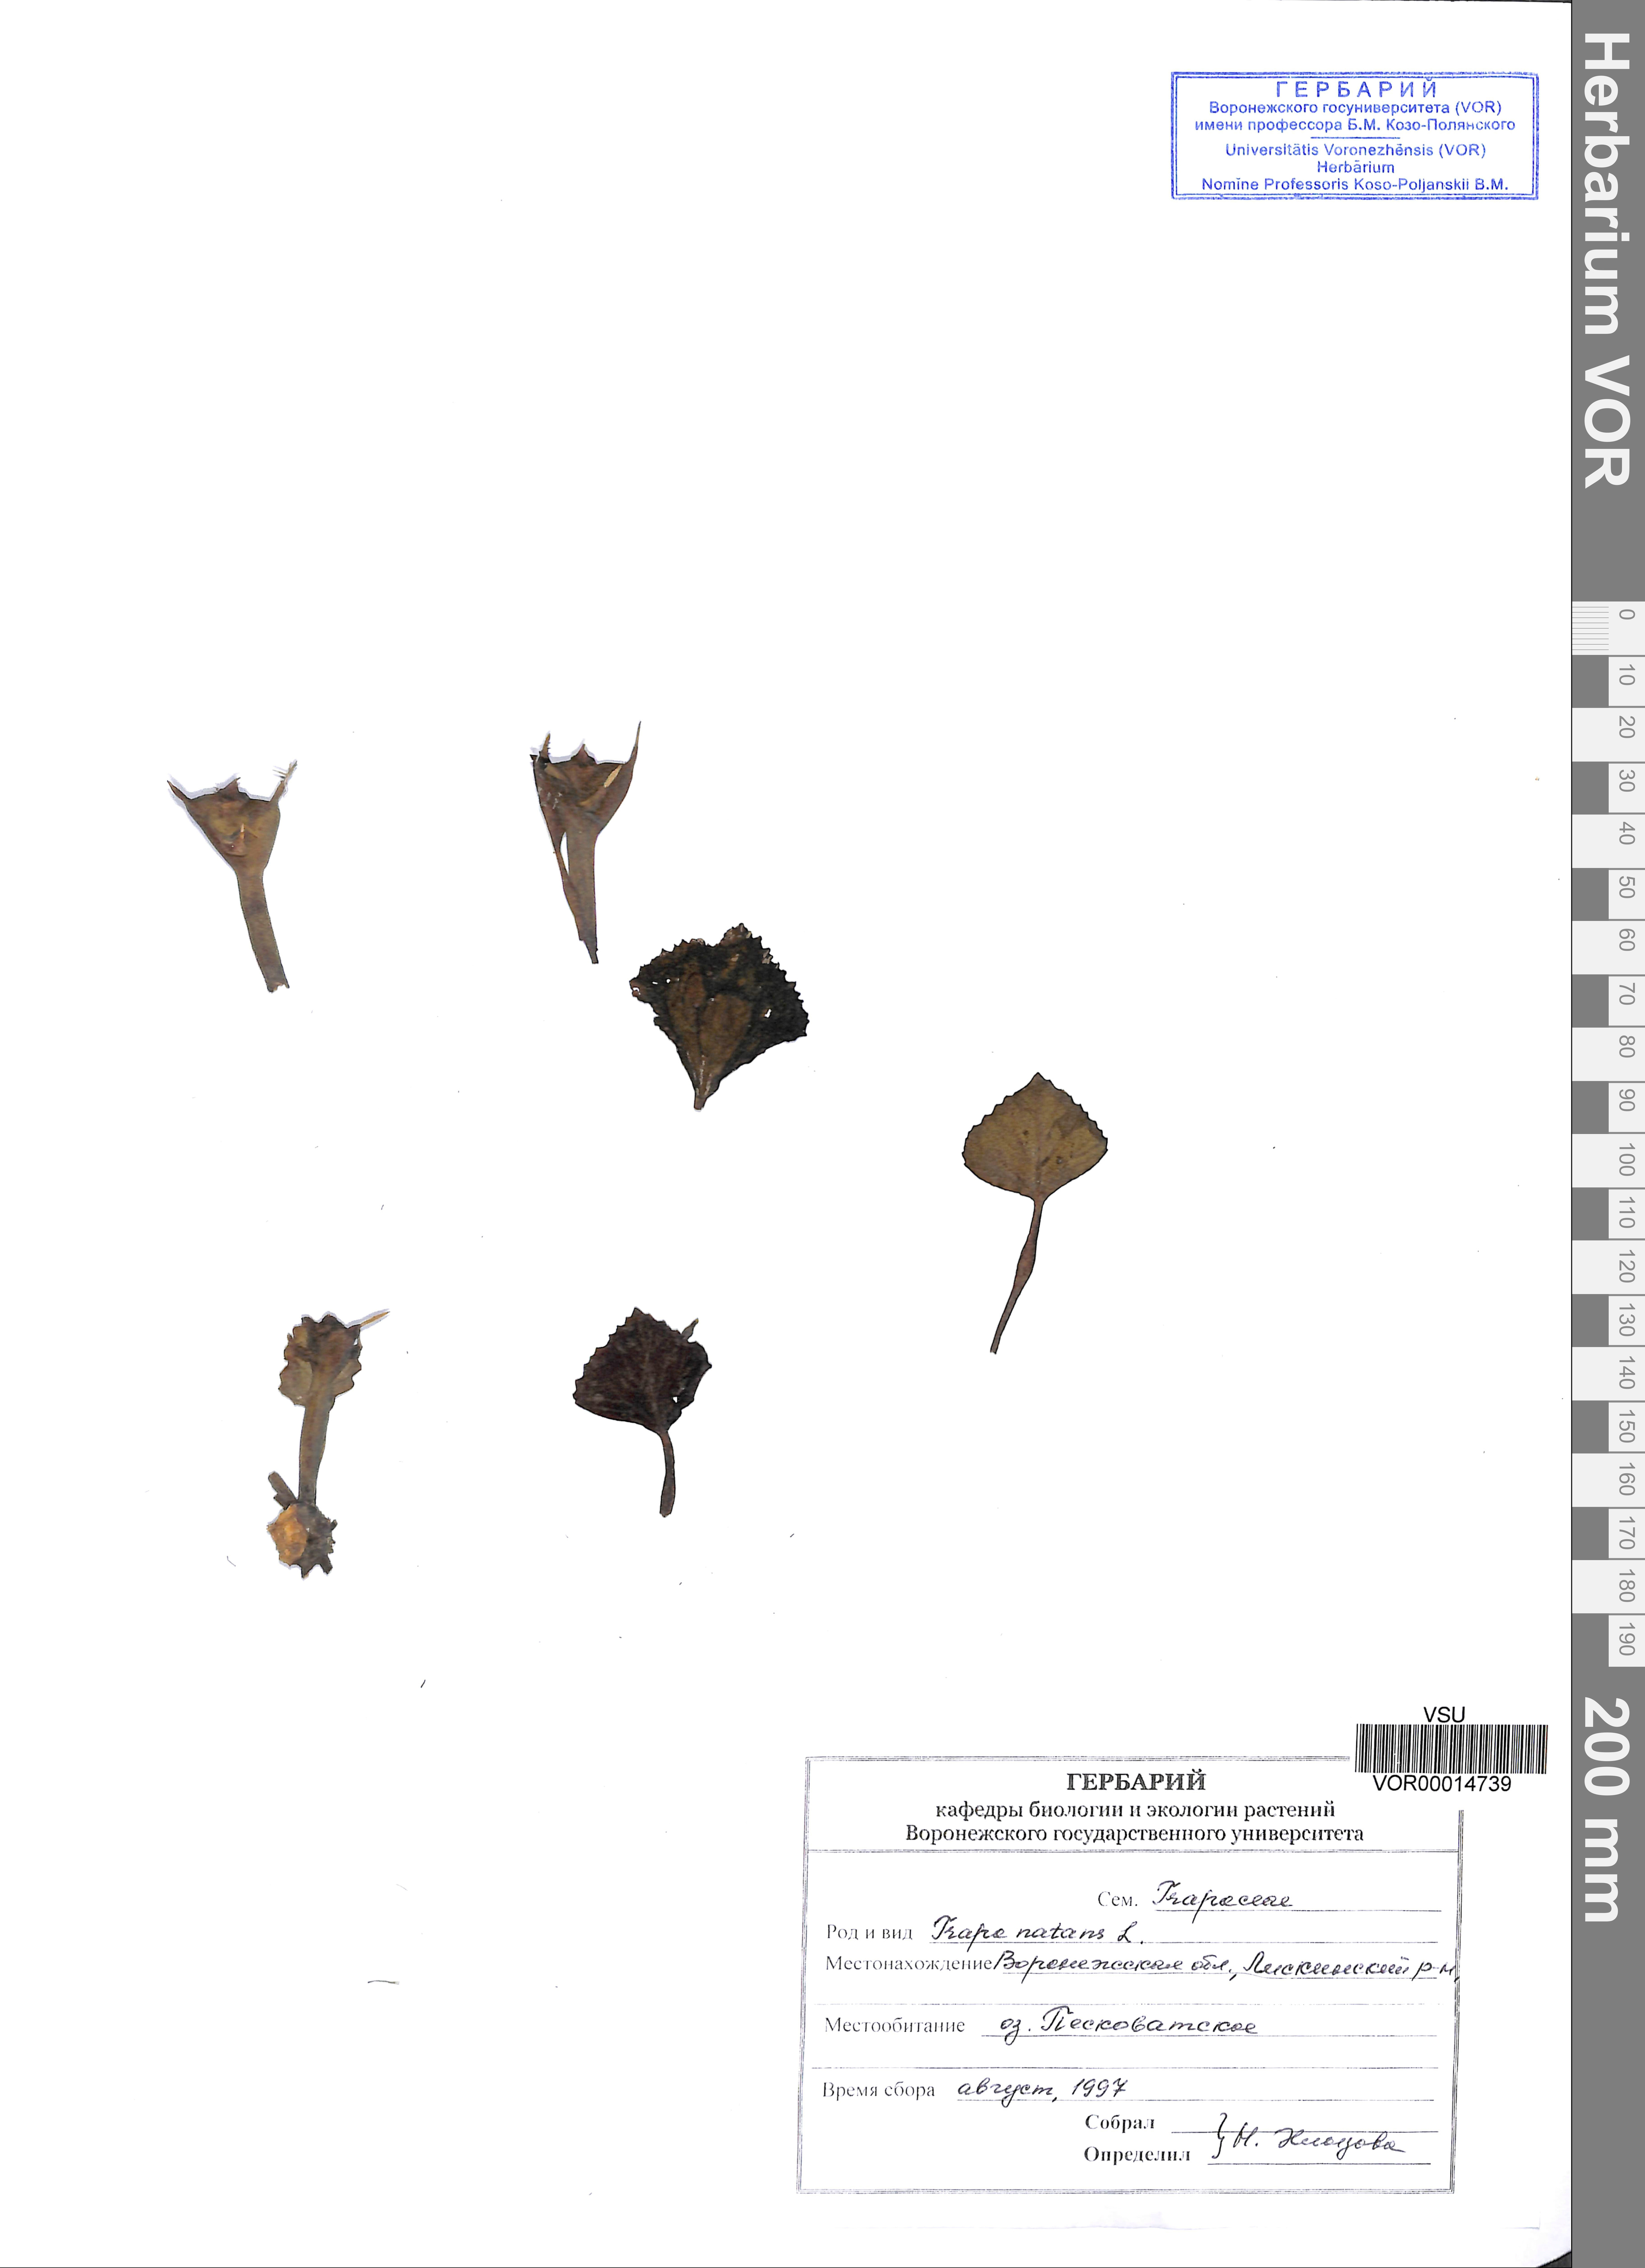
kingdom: Plantae
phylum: Tracheophyta
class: Magnoliopsida
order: Myrtales
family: Lythraceae
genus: Trapa
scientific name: Trapa natans
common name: Water chestnut
